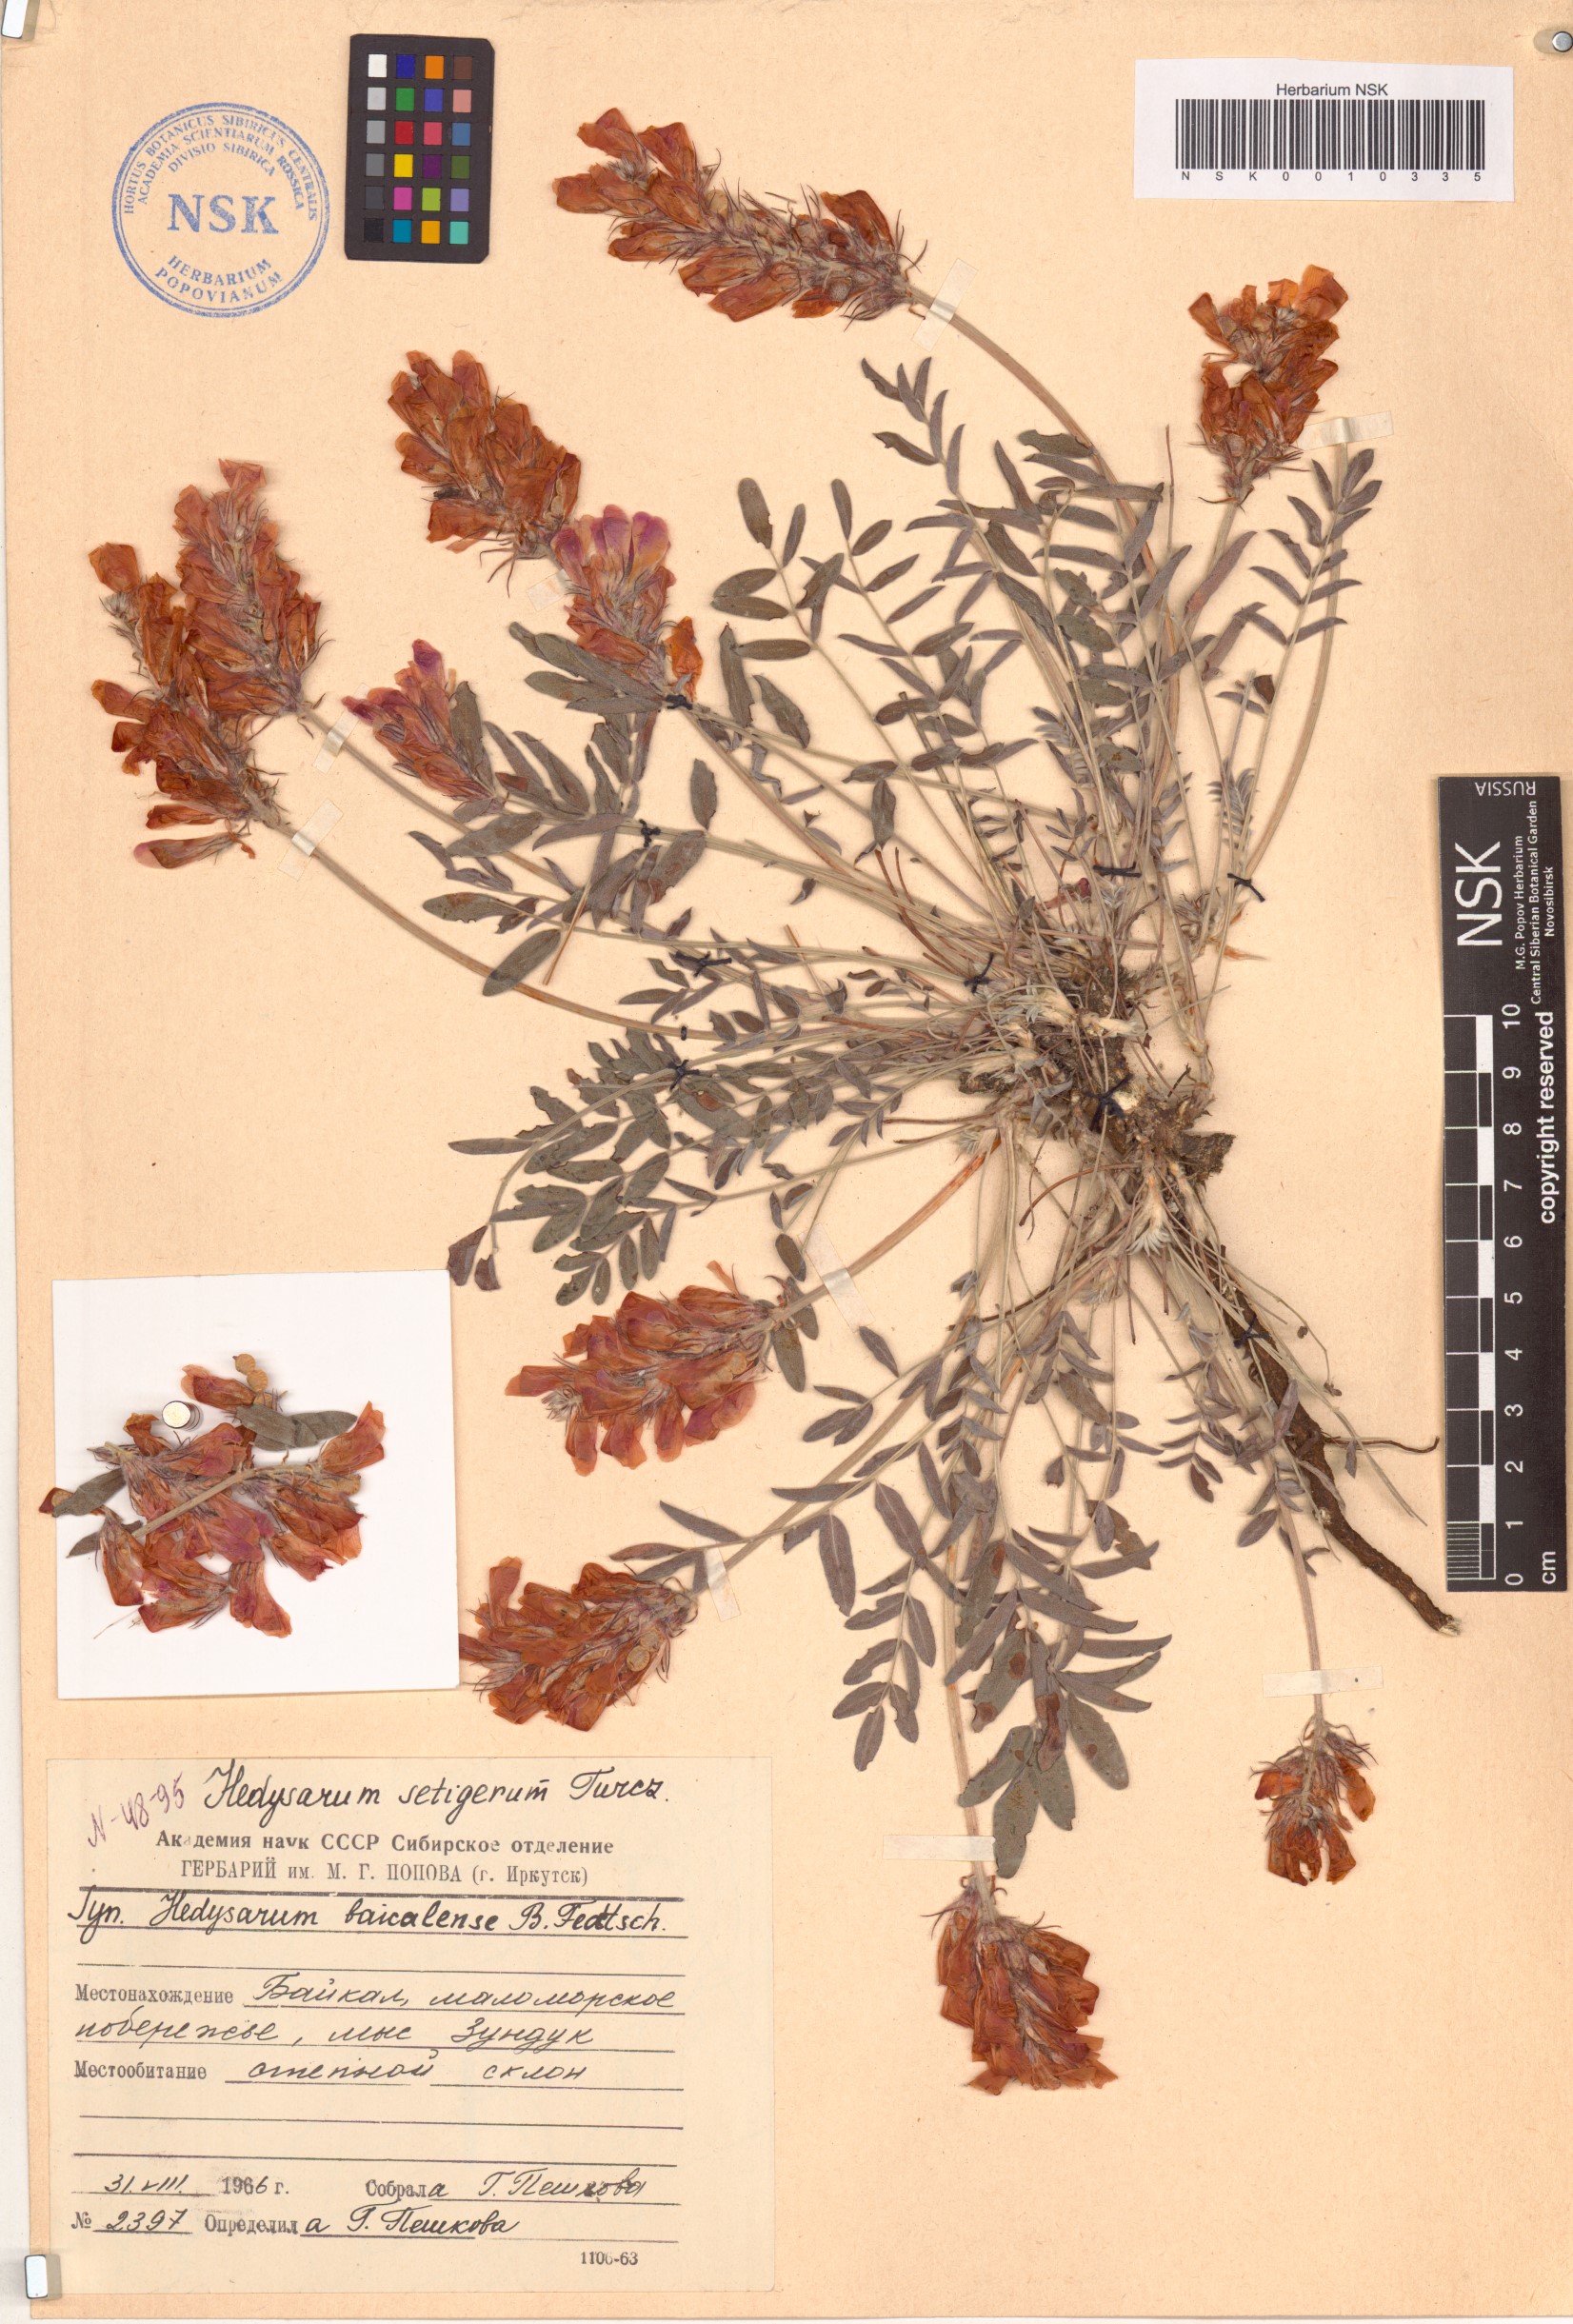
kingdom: Plantae
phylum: Tracheophyta
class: Magnoliopsida
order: Fabales
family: Fabaceae
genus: Hedysarum
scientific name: Hedysarum setigerum
